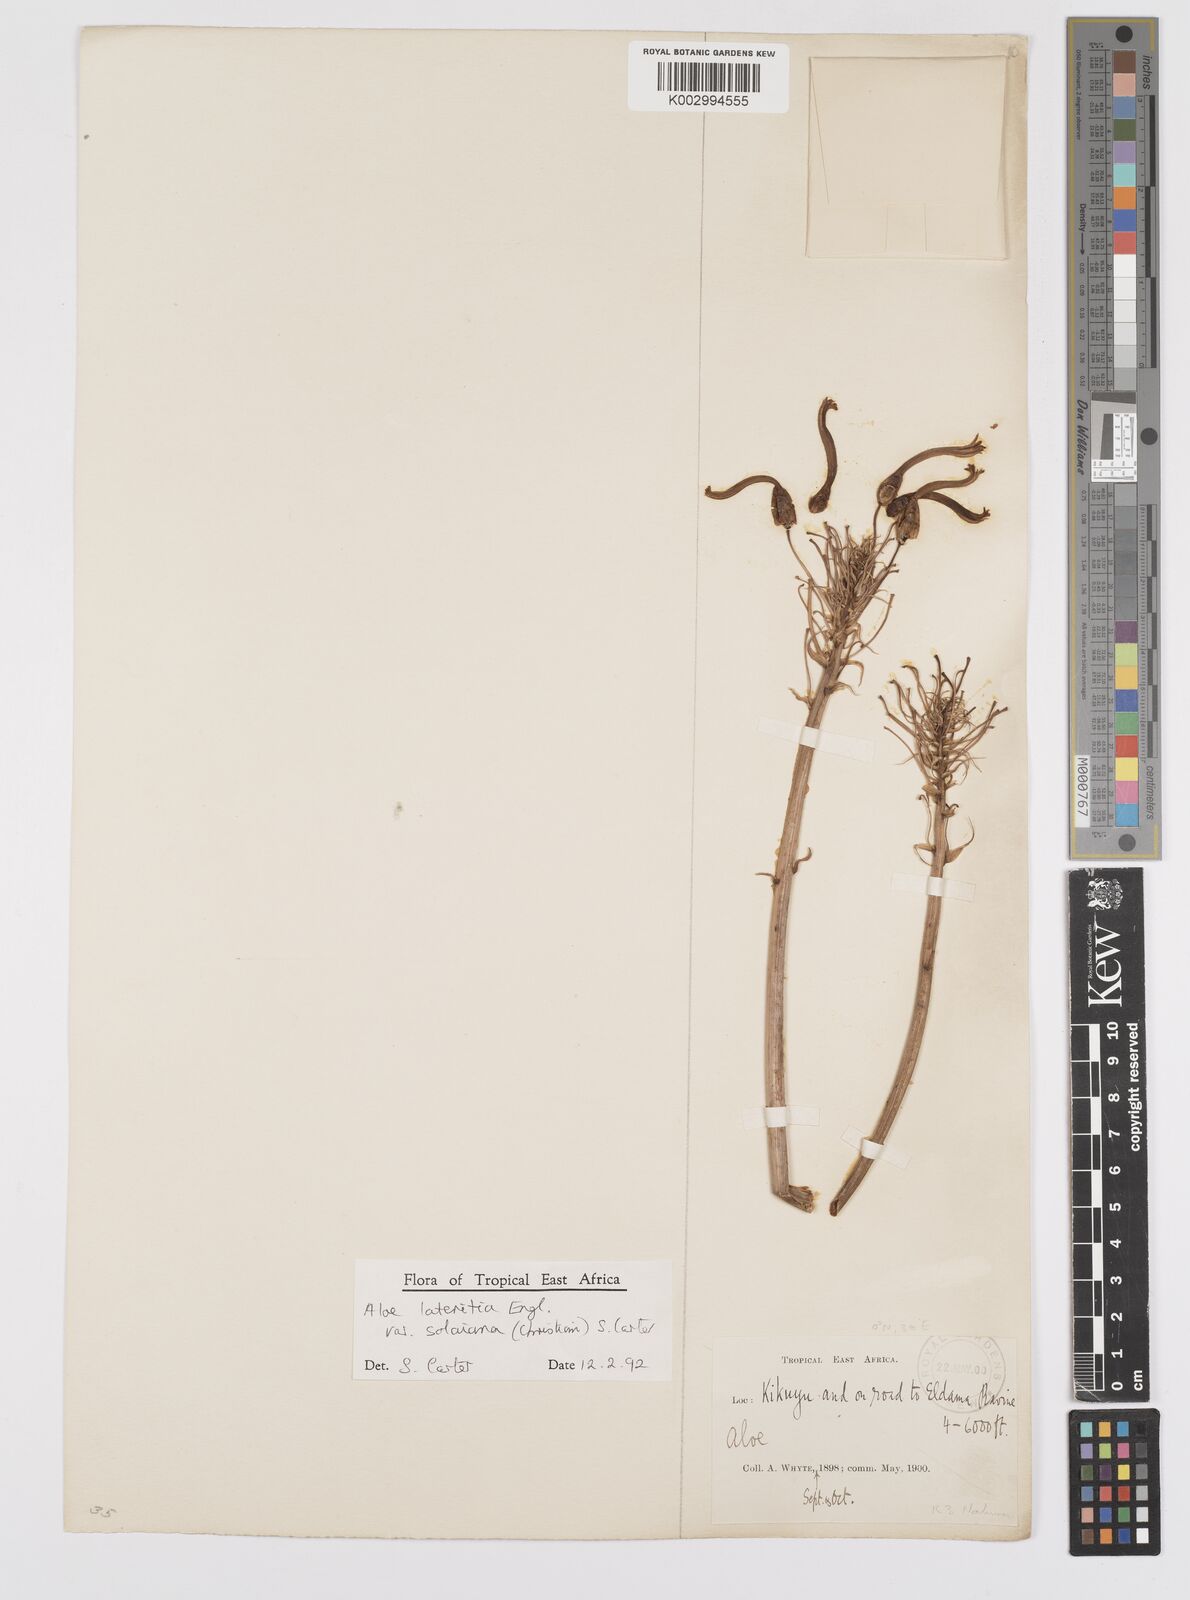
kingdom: Plantae
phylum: Tracheophyta
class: Liliopsida
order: Asparagales
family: Asphodelaceae
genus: Aloe
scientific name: Aloe lateritia
